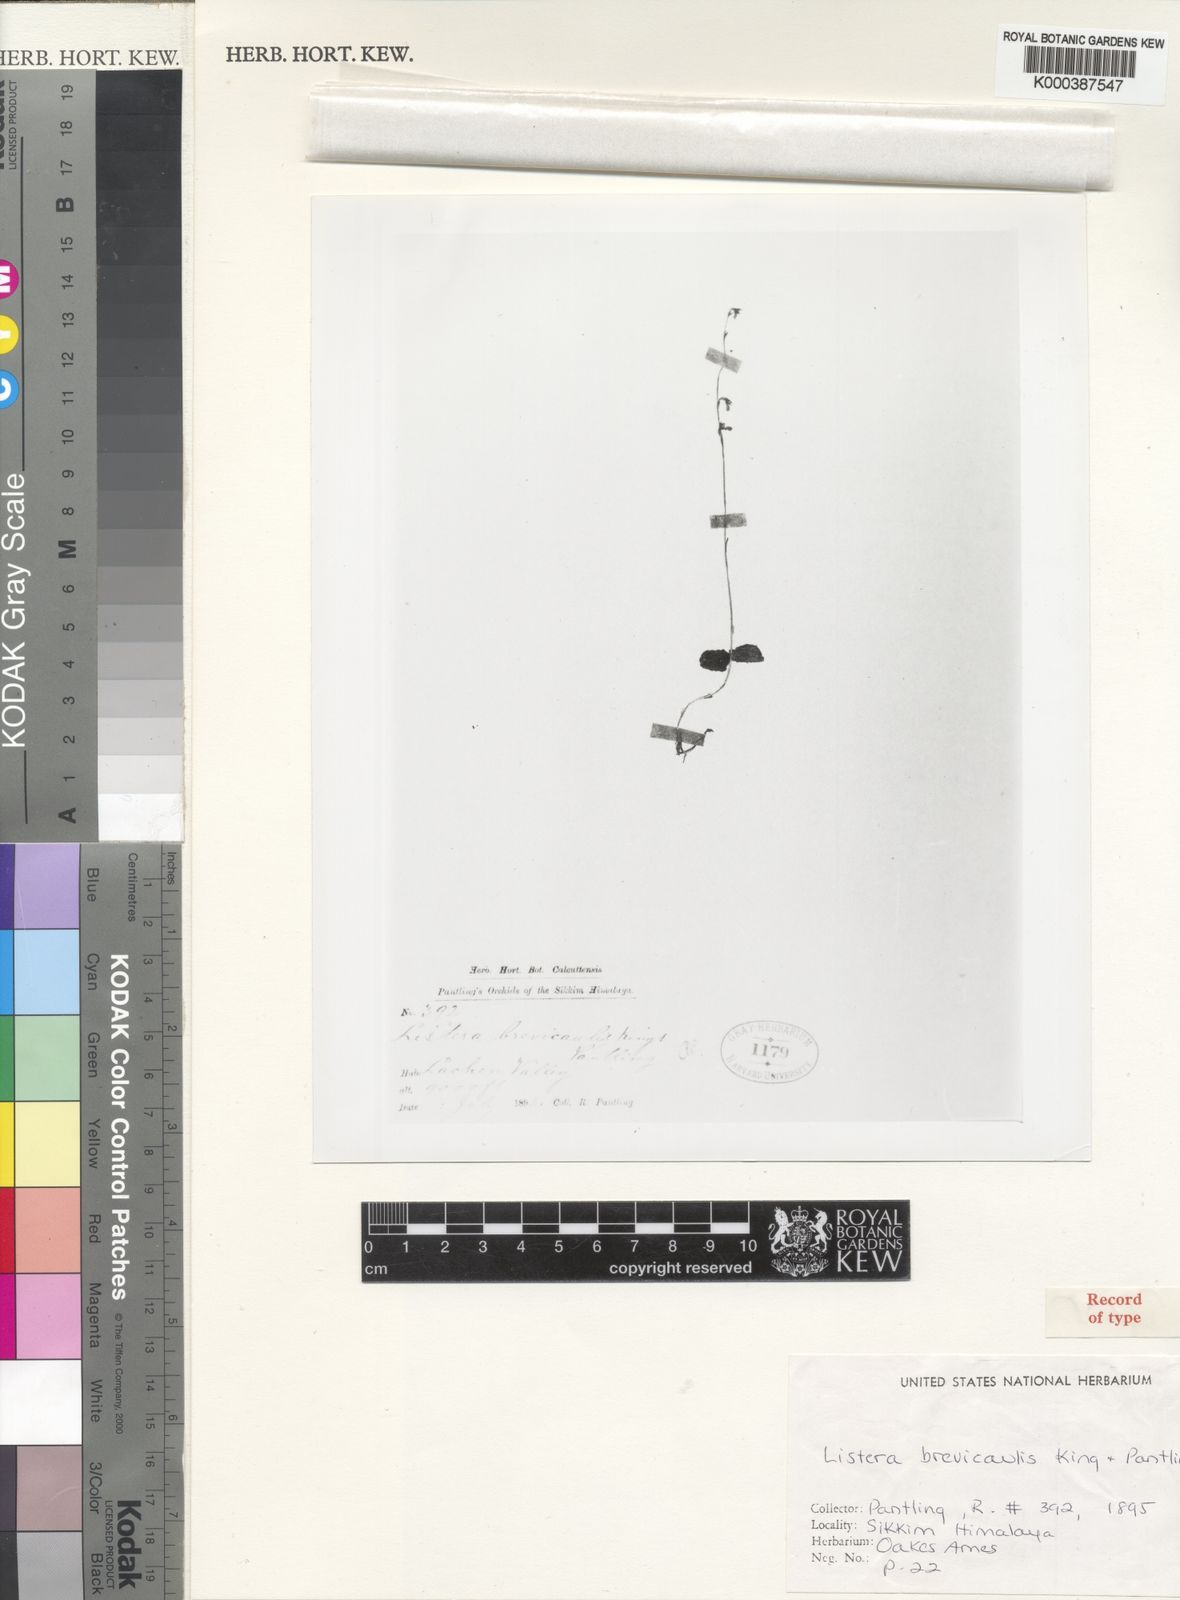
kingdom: Plantae
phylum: Tracheophyta
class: Liliopsida
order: Asparagales
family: Orchidaceae
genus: Neottia
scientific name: Neottia brevicaulis
